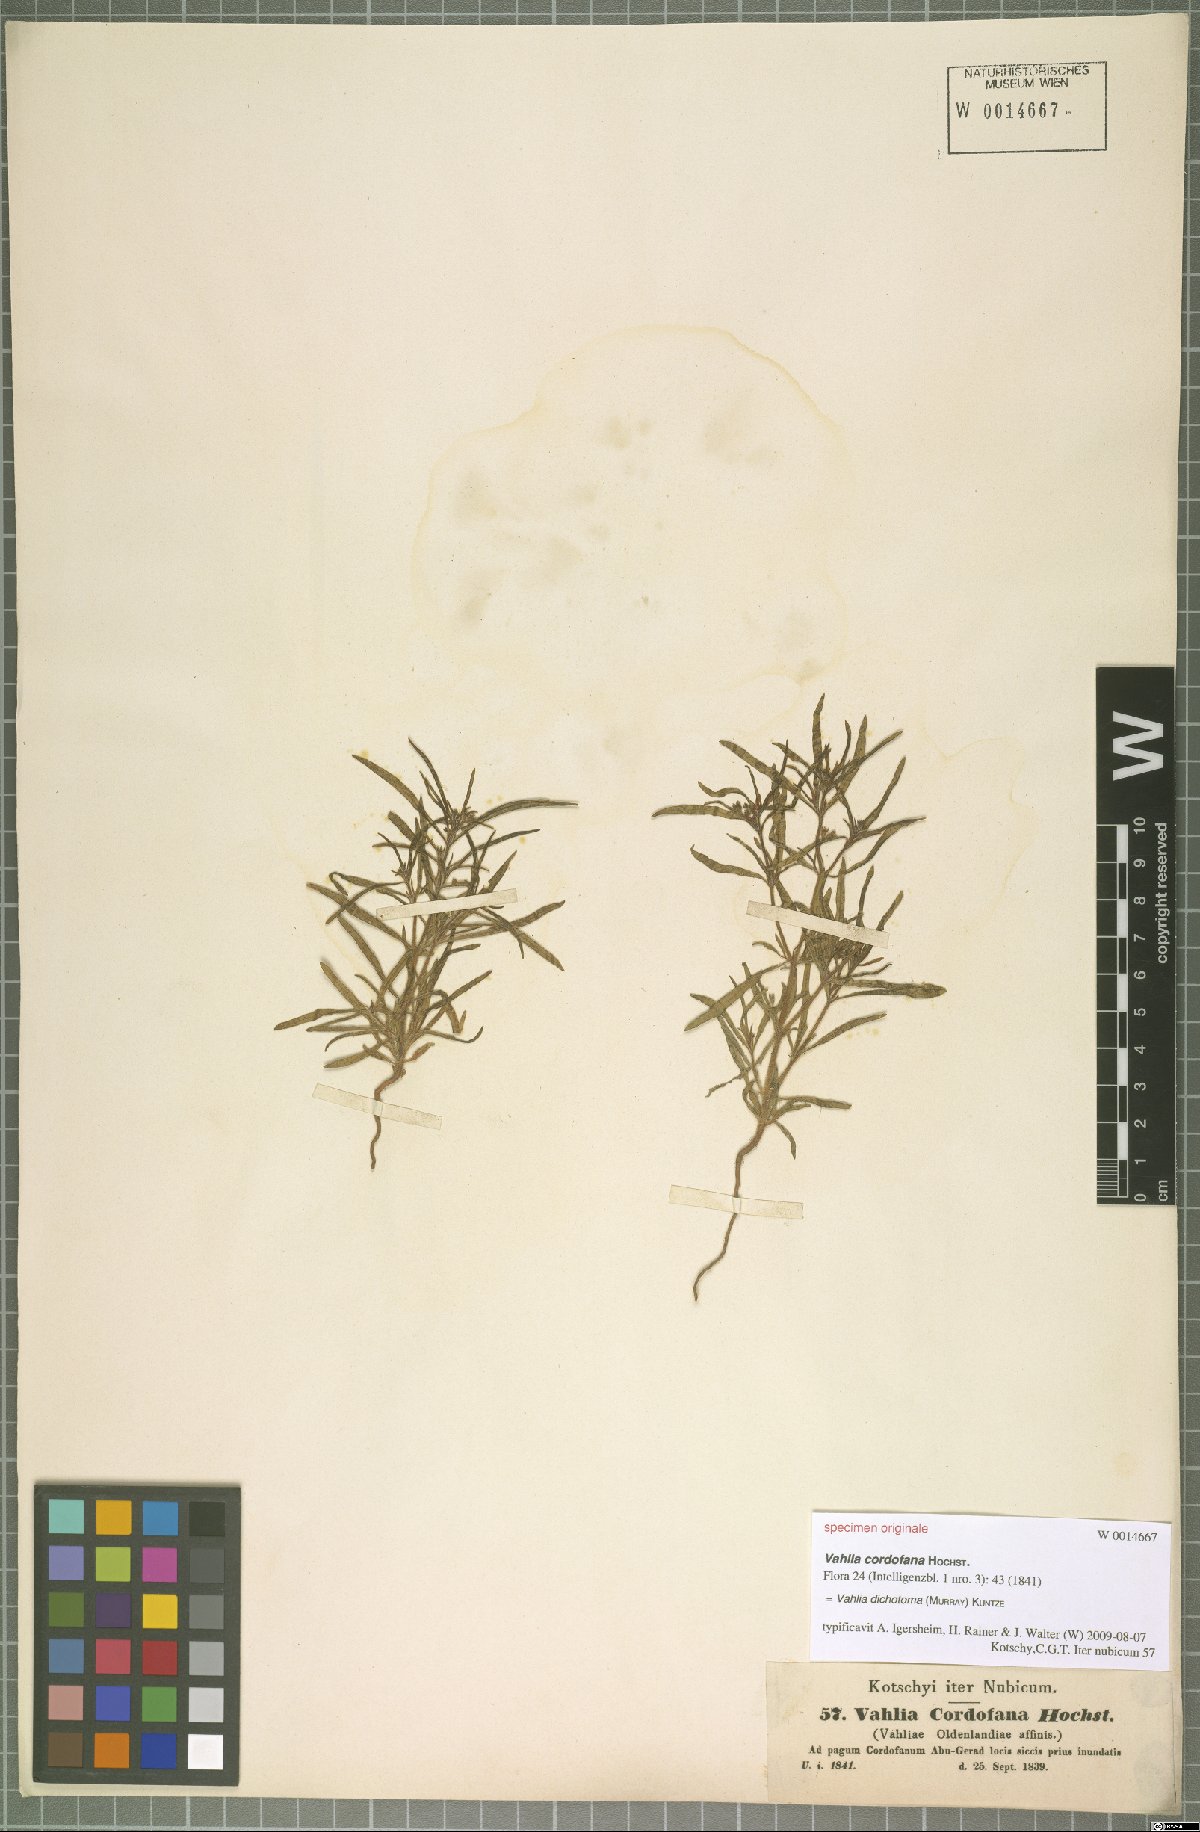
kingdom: Plantae
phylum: Tracheophyta
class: Magnoliopsida
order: Vahliales
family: Vahliaceae
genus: Vahlia
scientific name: Vahlia dichotoma
